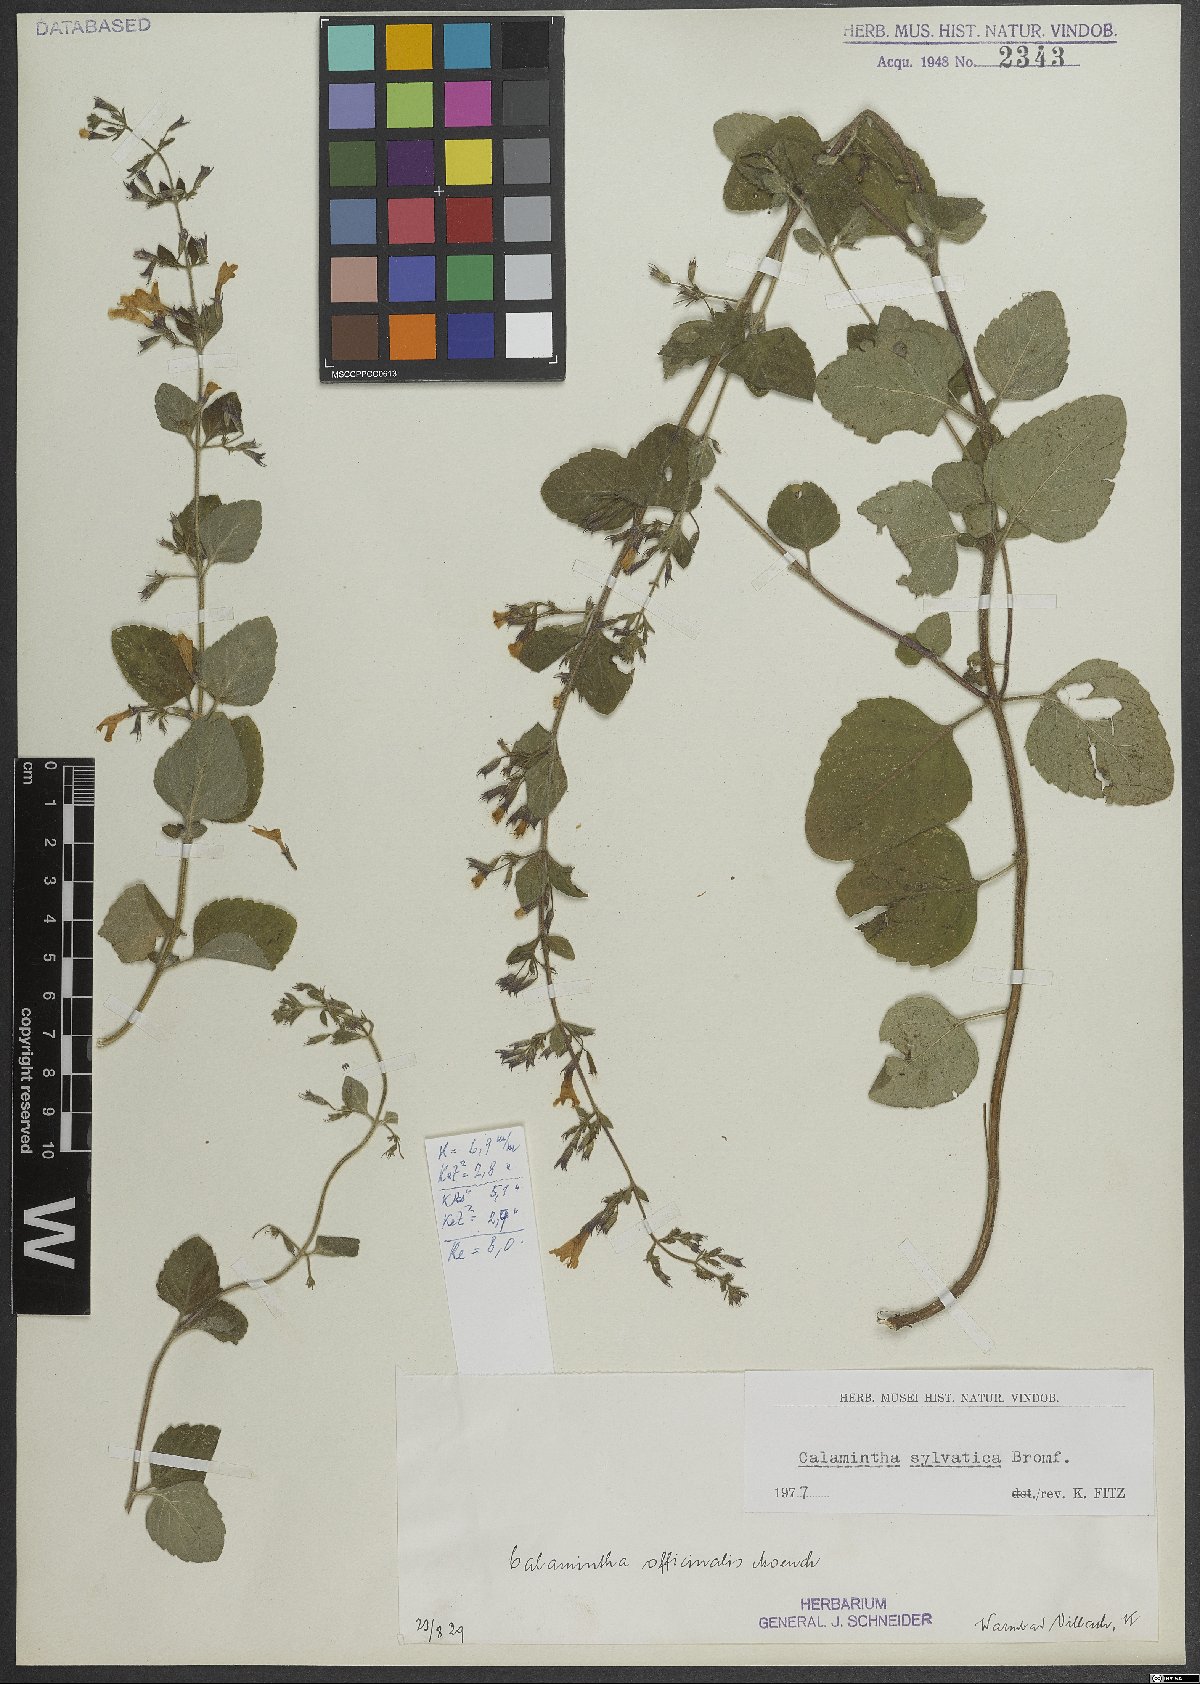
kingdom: Plantae
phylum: Tracheophyta
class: Magnoliopsida
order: Lamiales
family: Lamiaceae
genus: Clinopodium
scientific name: Clinopodium menthifolium
